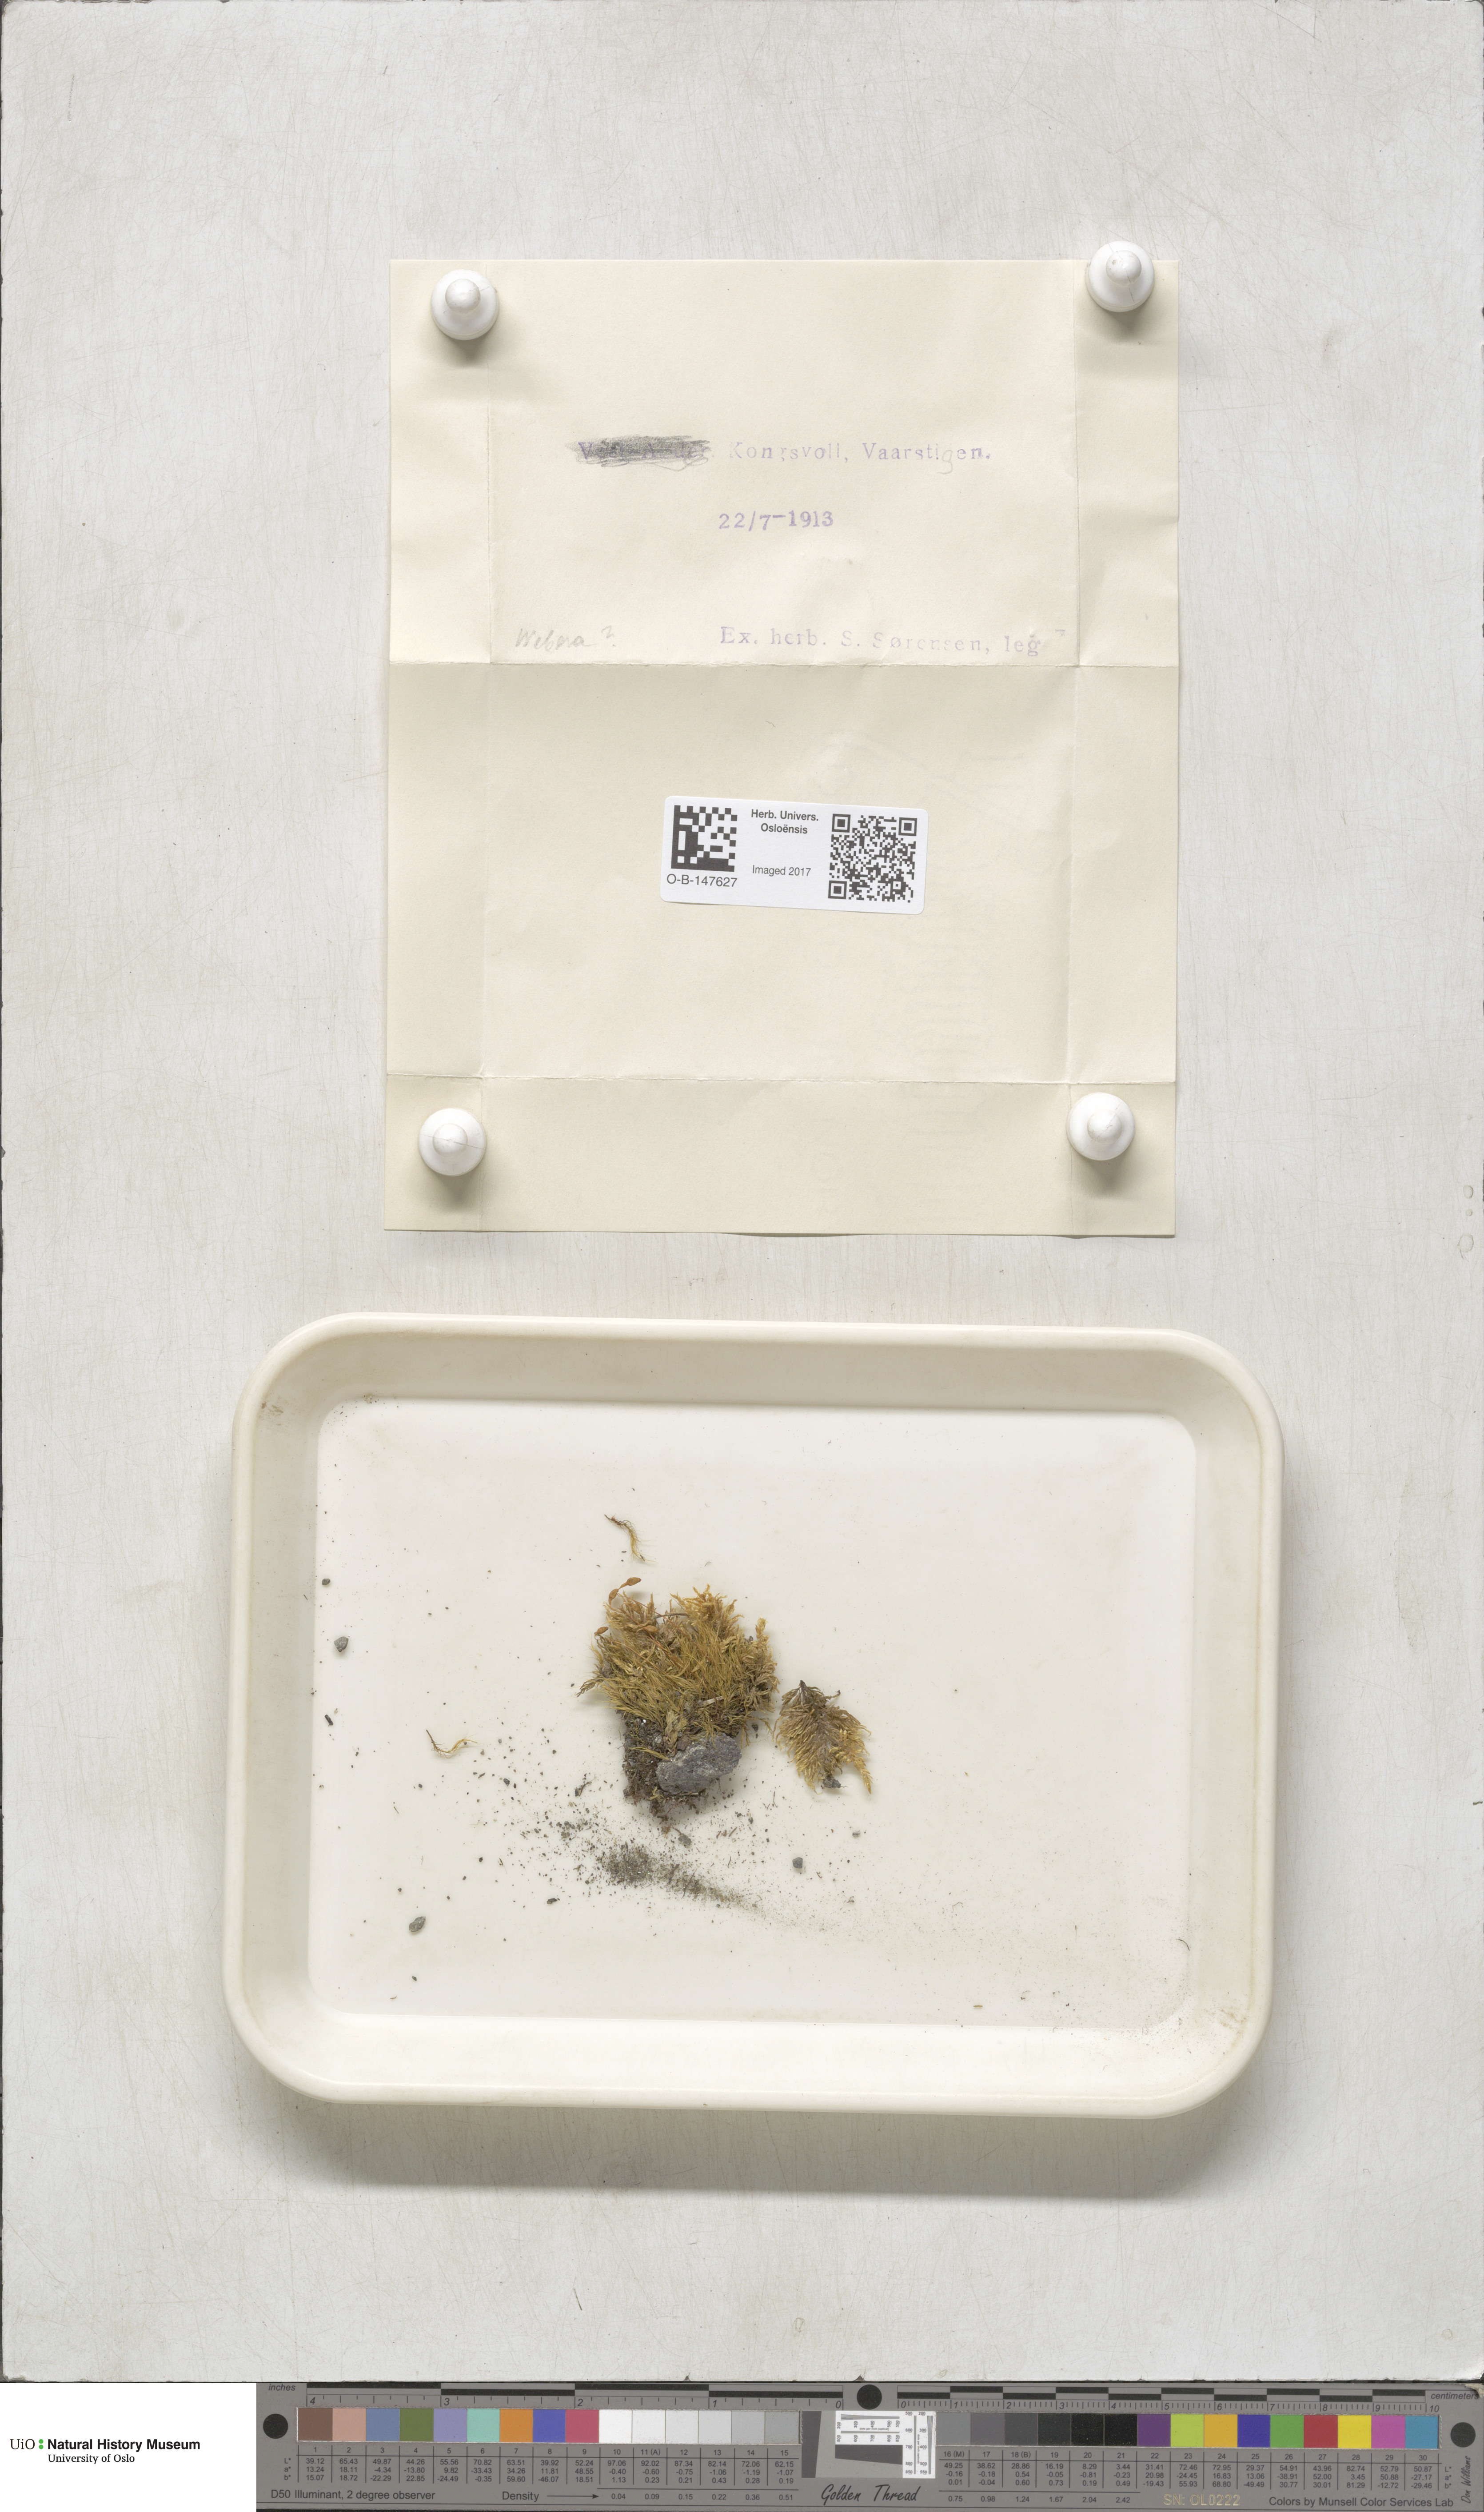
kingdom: Plantae
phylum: Bryophyta
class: Bryopsida
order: Bryales
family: Mniaceae
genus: Pohlia
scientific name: Pohlia
